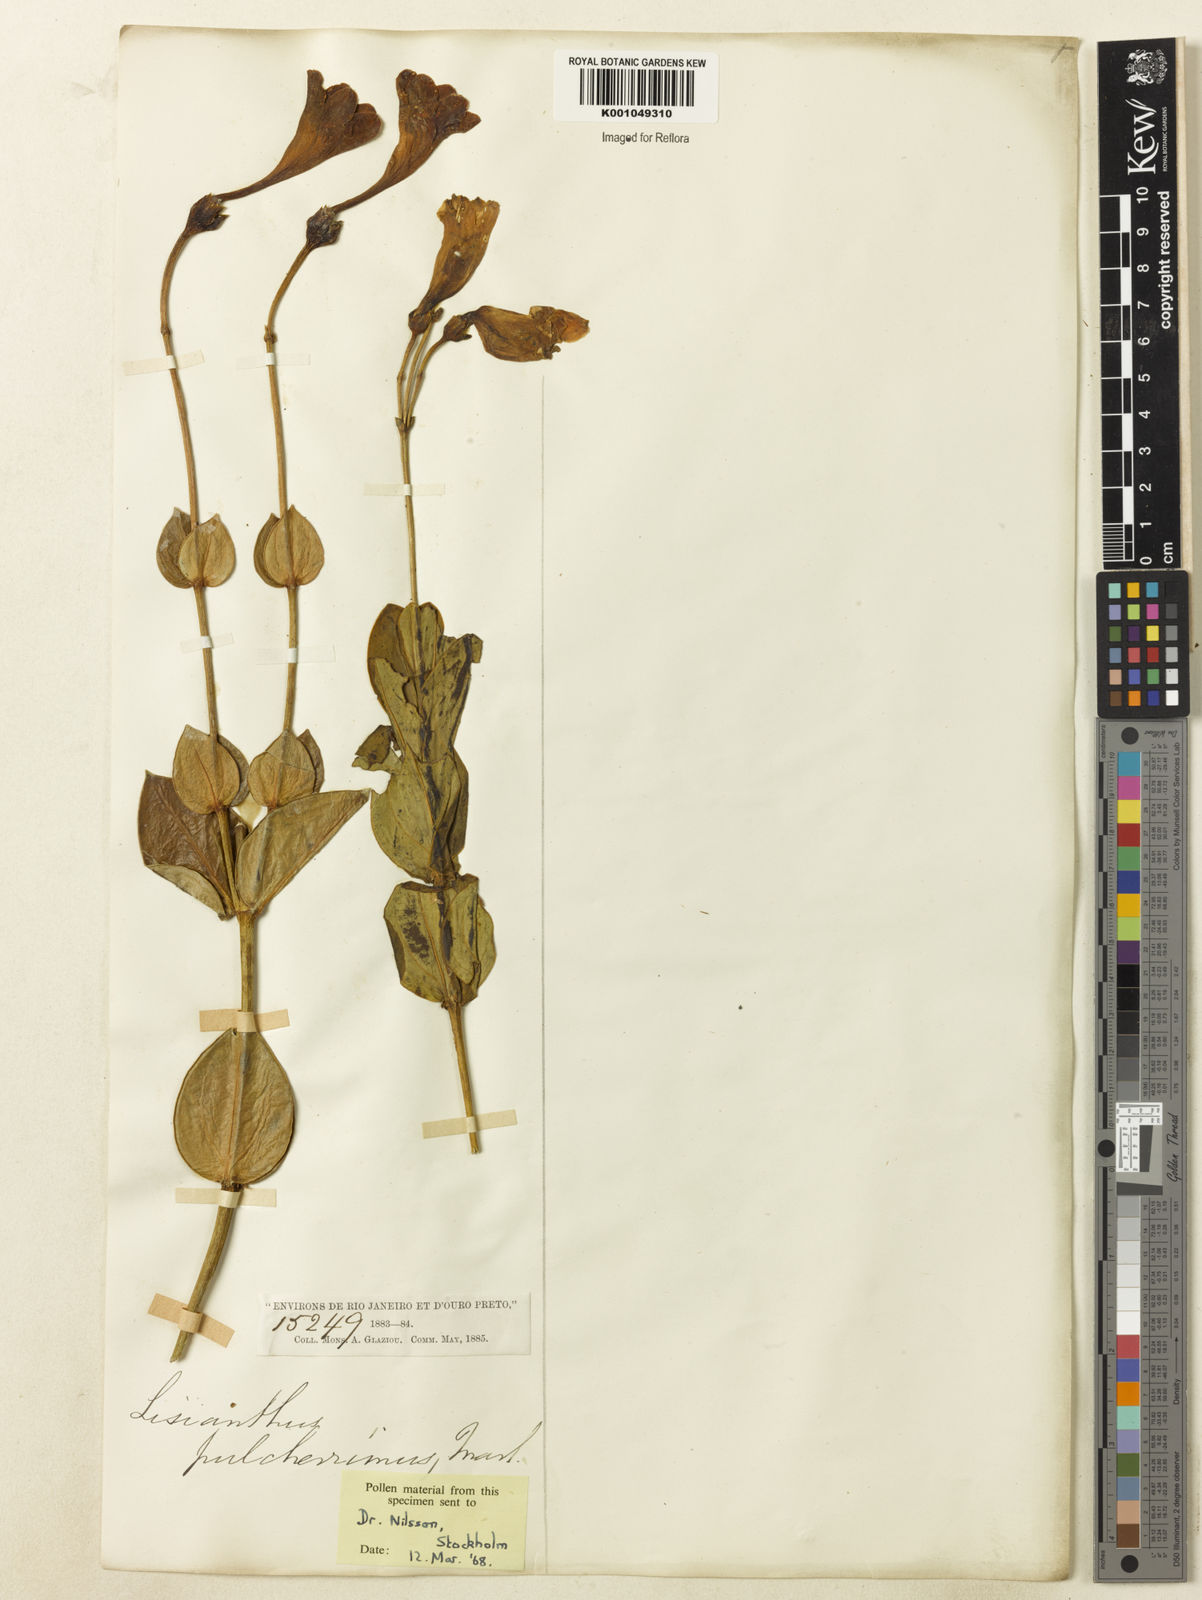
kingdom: Plantae
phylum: Tracheophyta
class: Magnoliopsida
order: Gentianales
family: Gentianaceae
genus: Calolisianthus
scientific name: Calolisianthus pulcherrimus
